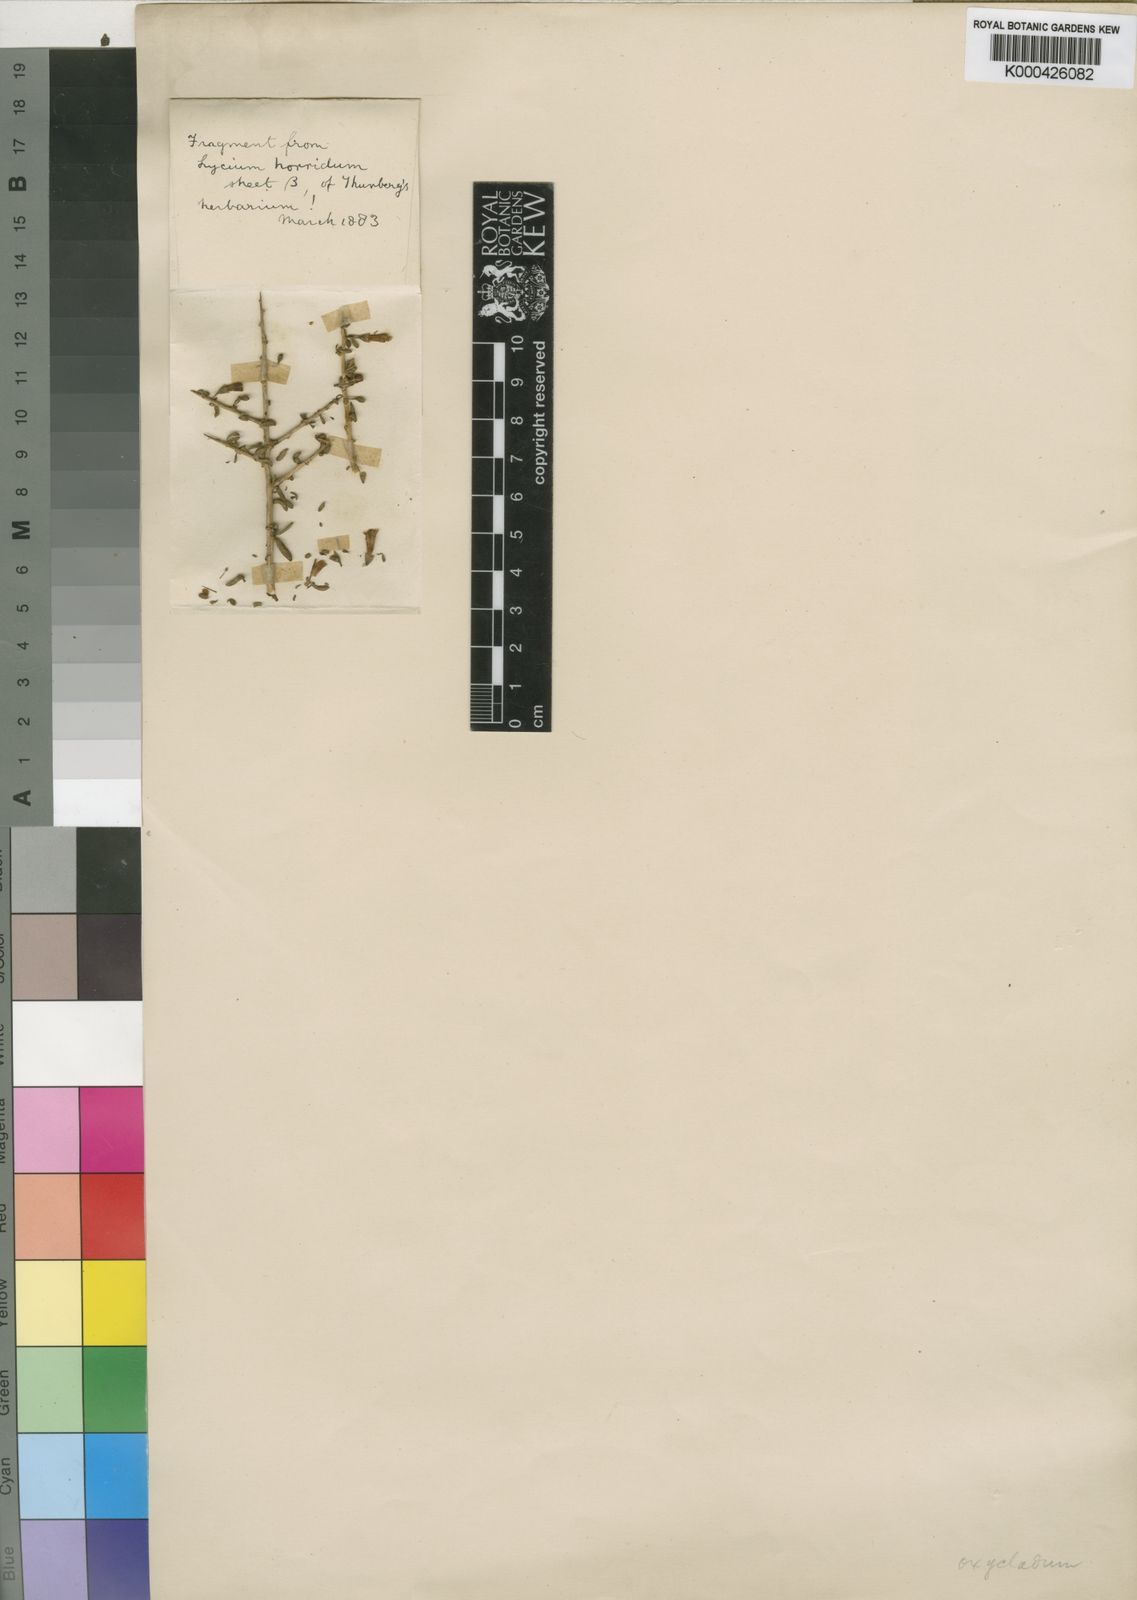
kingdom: Plantae
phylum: Tracheophyta
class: Magnoliopsida
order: Solanales
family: Solanaceae
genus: Lycium
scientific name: Lycium horridum
